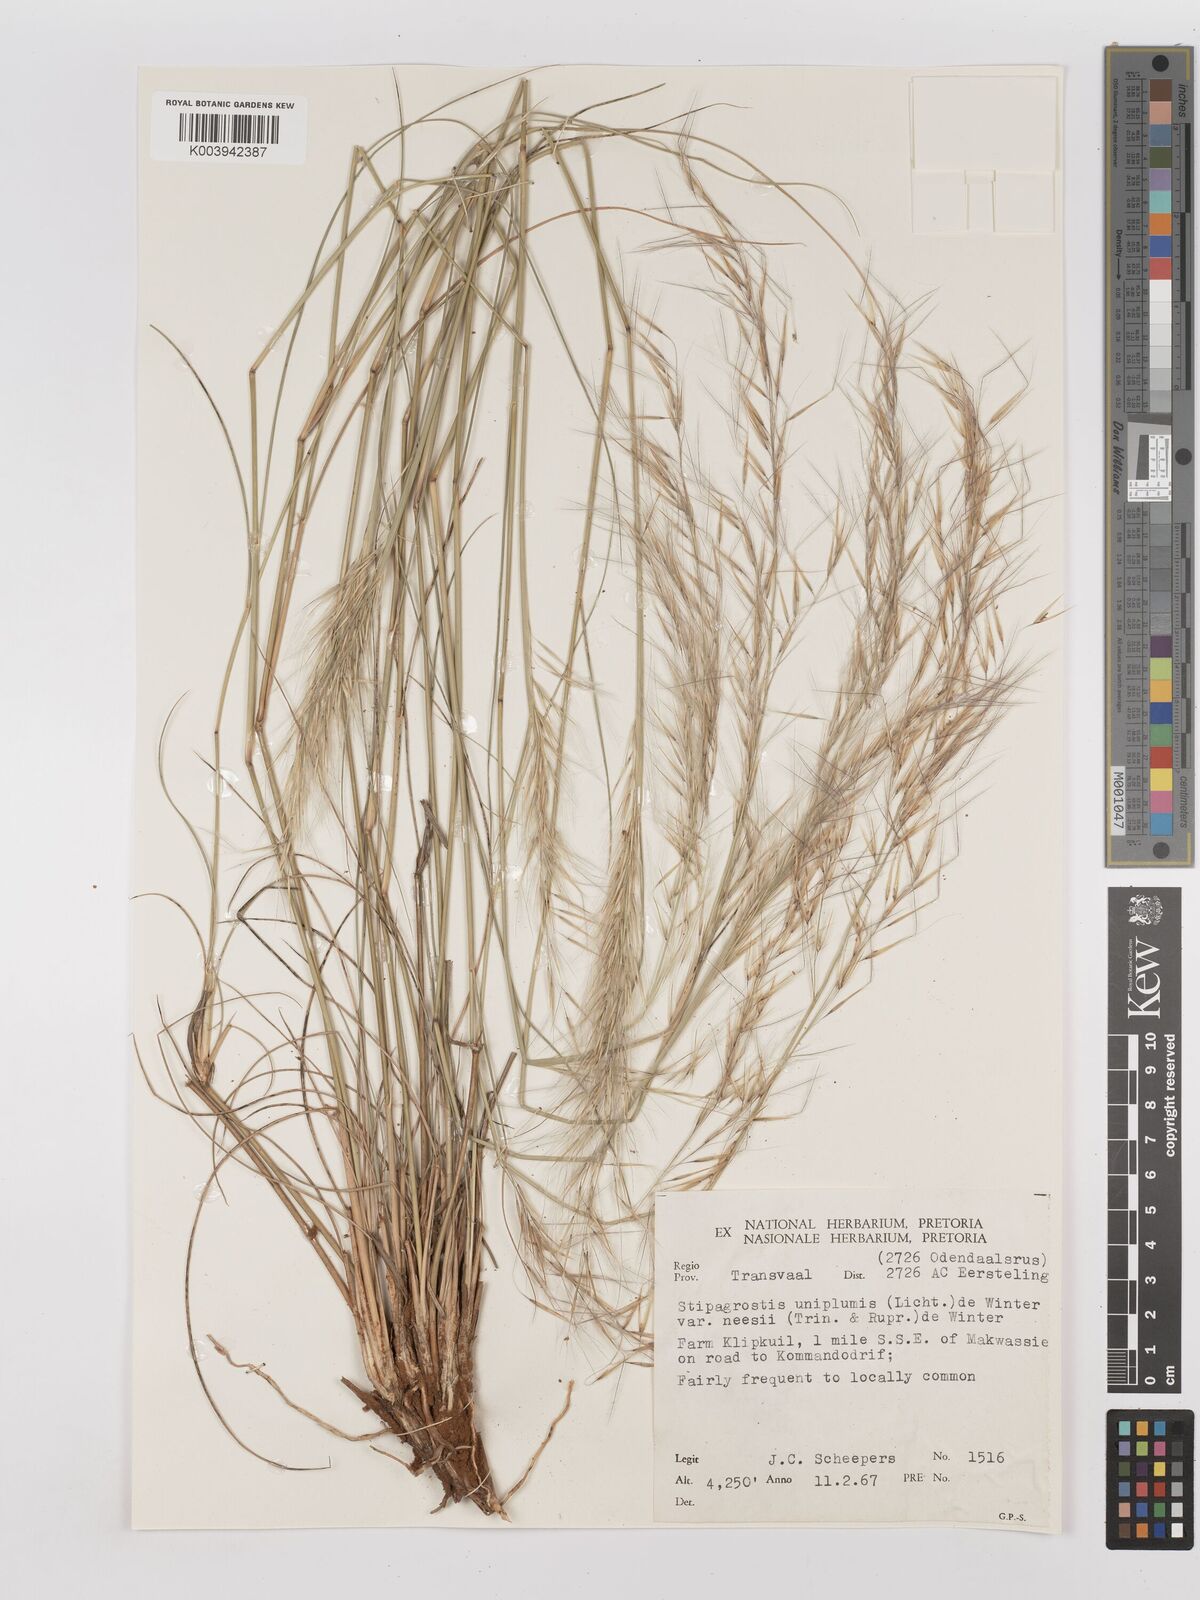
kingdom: Plantae
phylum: Tracheophyta
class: Liliopsida
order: Poales
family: Poaceae
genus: Stipagrostis
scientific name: Stipagrostis uniplumis
